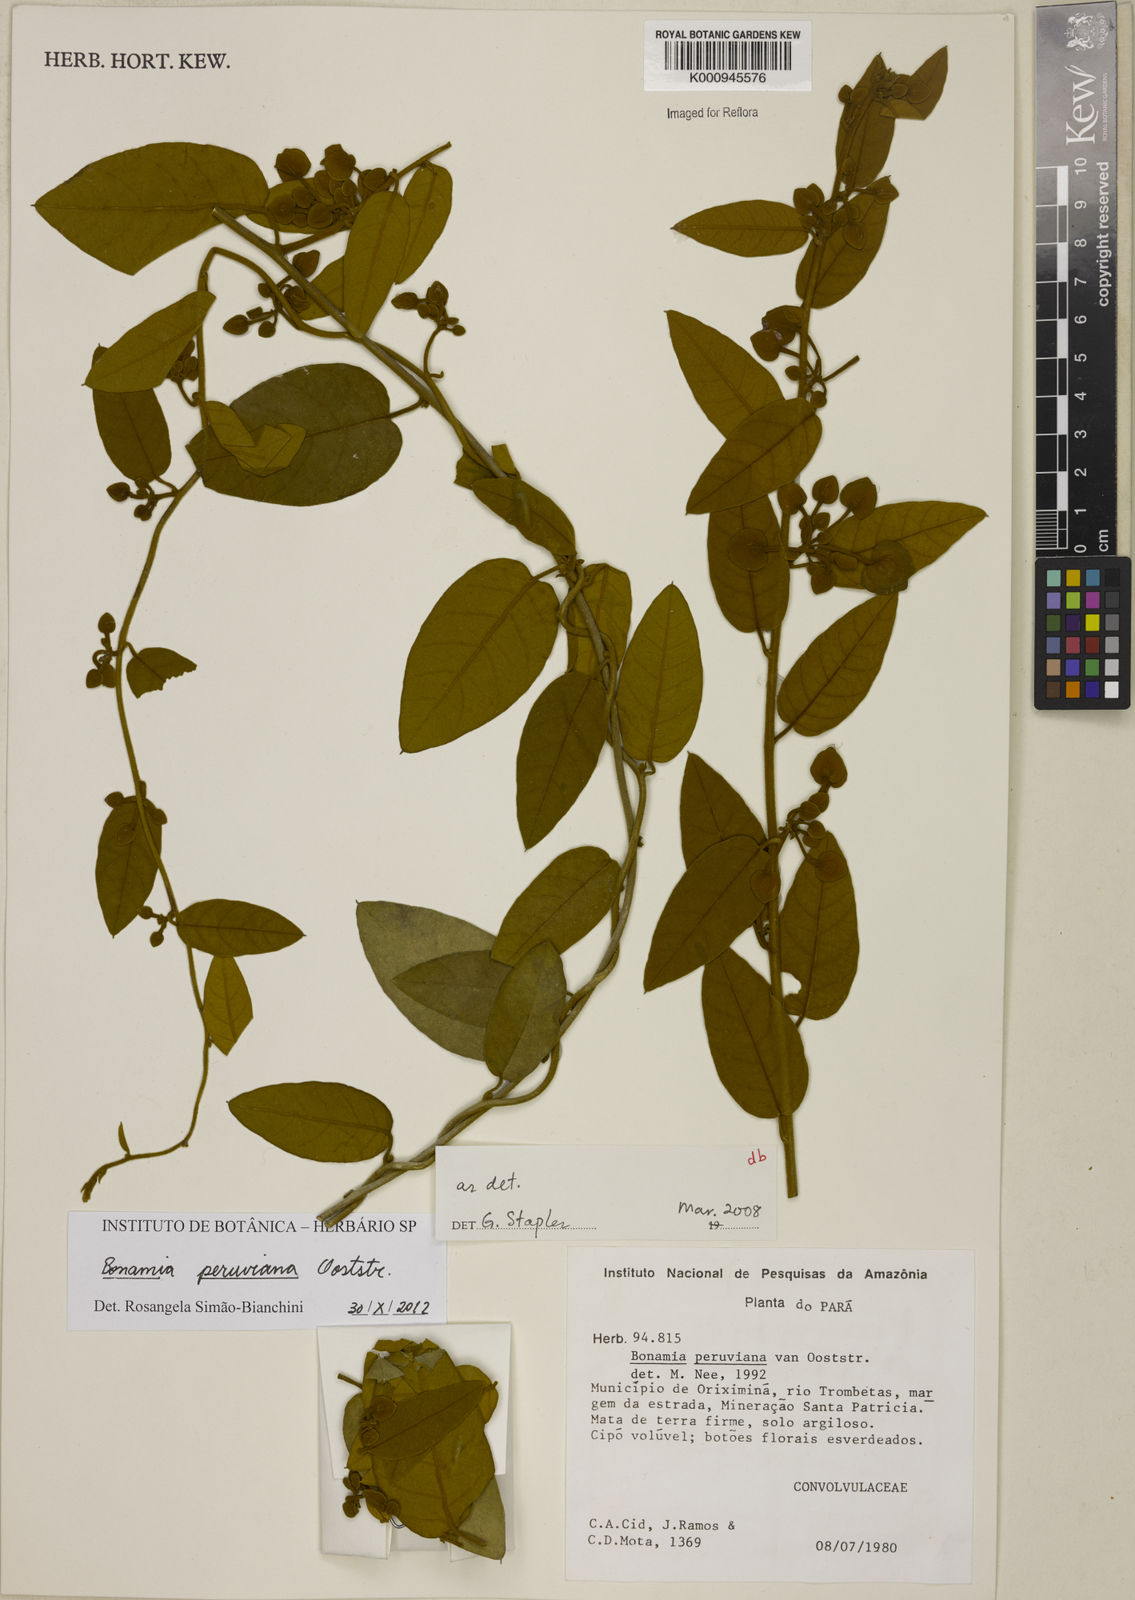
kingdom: Plantae
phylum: Tracheophyta
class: Magnoliopsida
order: Solanales
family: Convolvulaceae
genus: Bonamia
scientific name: Bonamia peruviana
